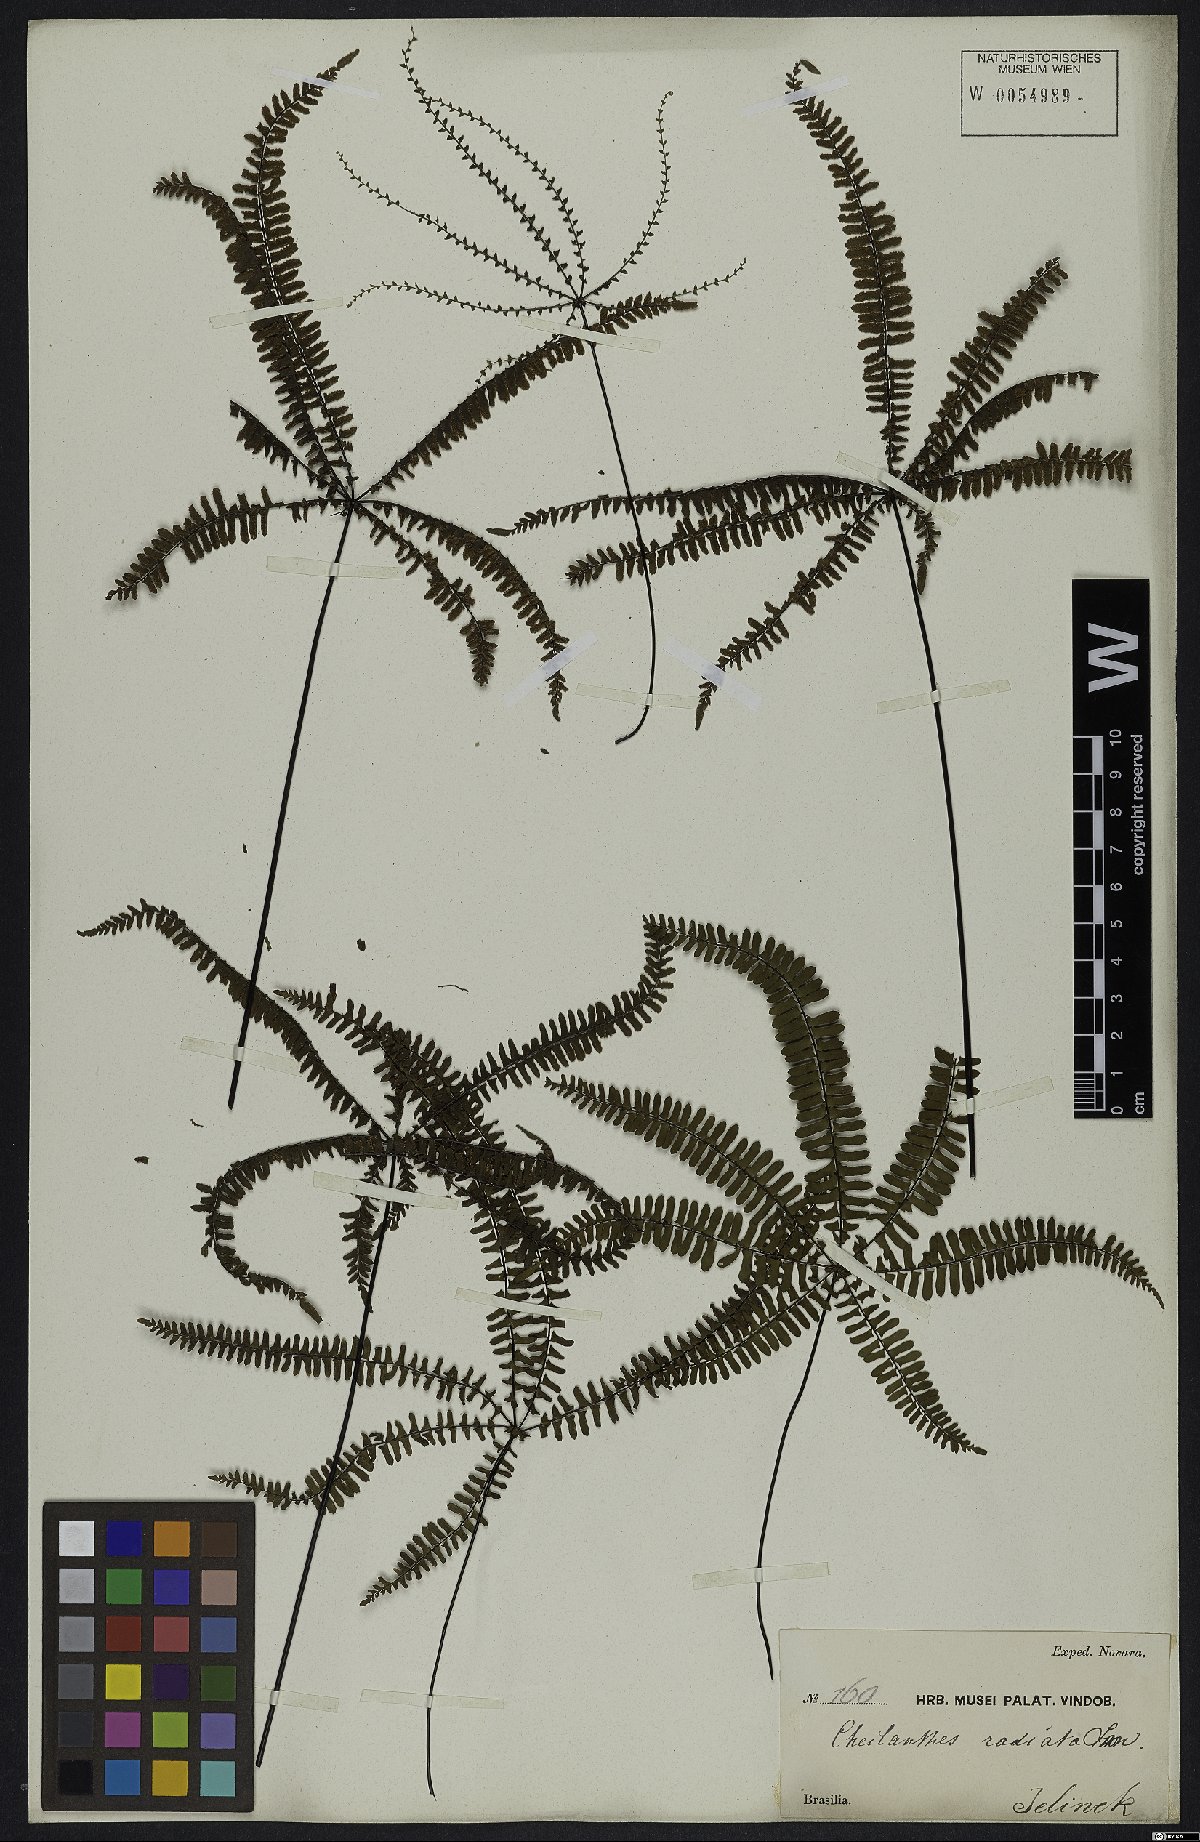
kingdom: Plantae
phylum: Tracheophyta
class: Polypodiopsida
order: Polypodiales
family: Pteridaceae
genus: Adiantopsis
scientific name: Adiantopsis radiata
